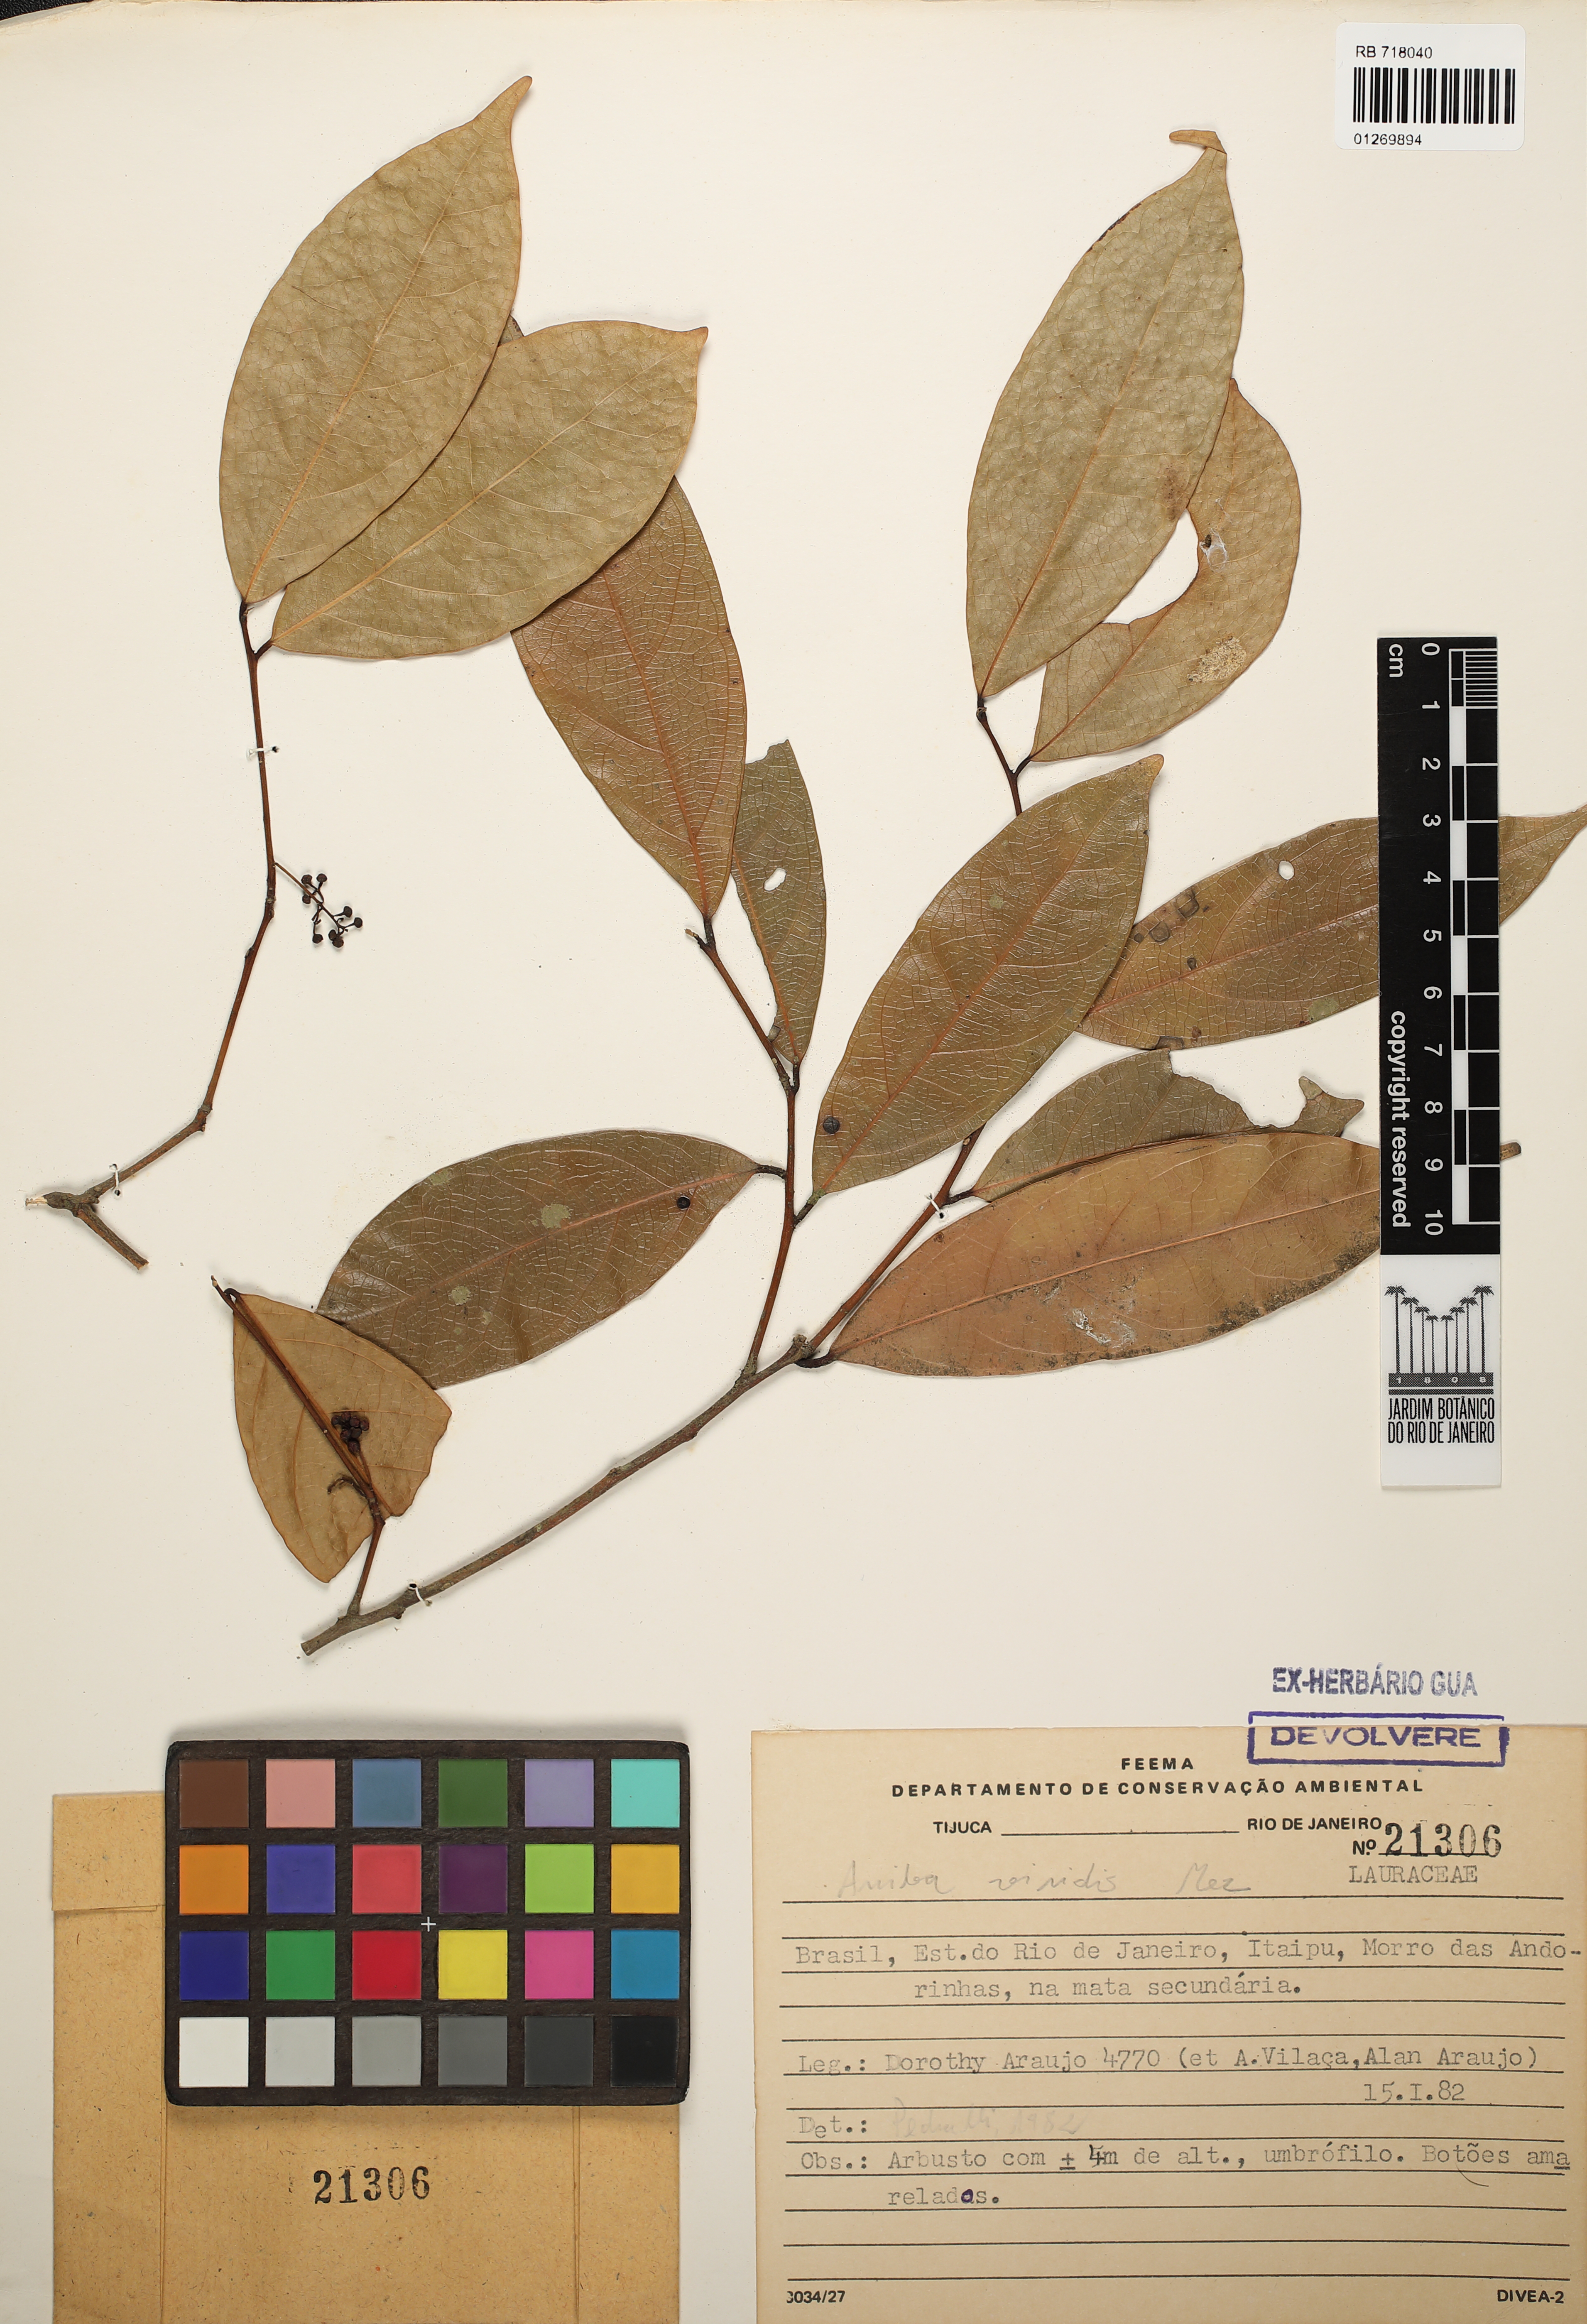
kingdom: Plantae
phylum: Tracheophyta
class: Magnoliopsida
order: Laurales
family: Lauraceae
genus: Aniba
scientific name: Aniba firmula
